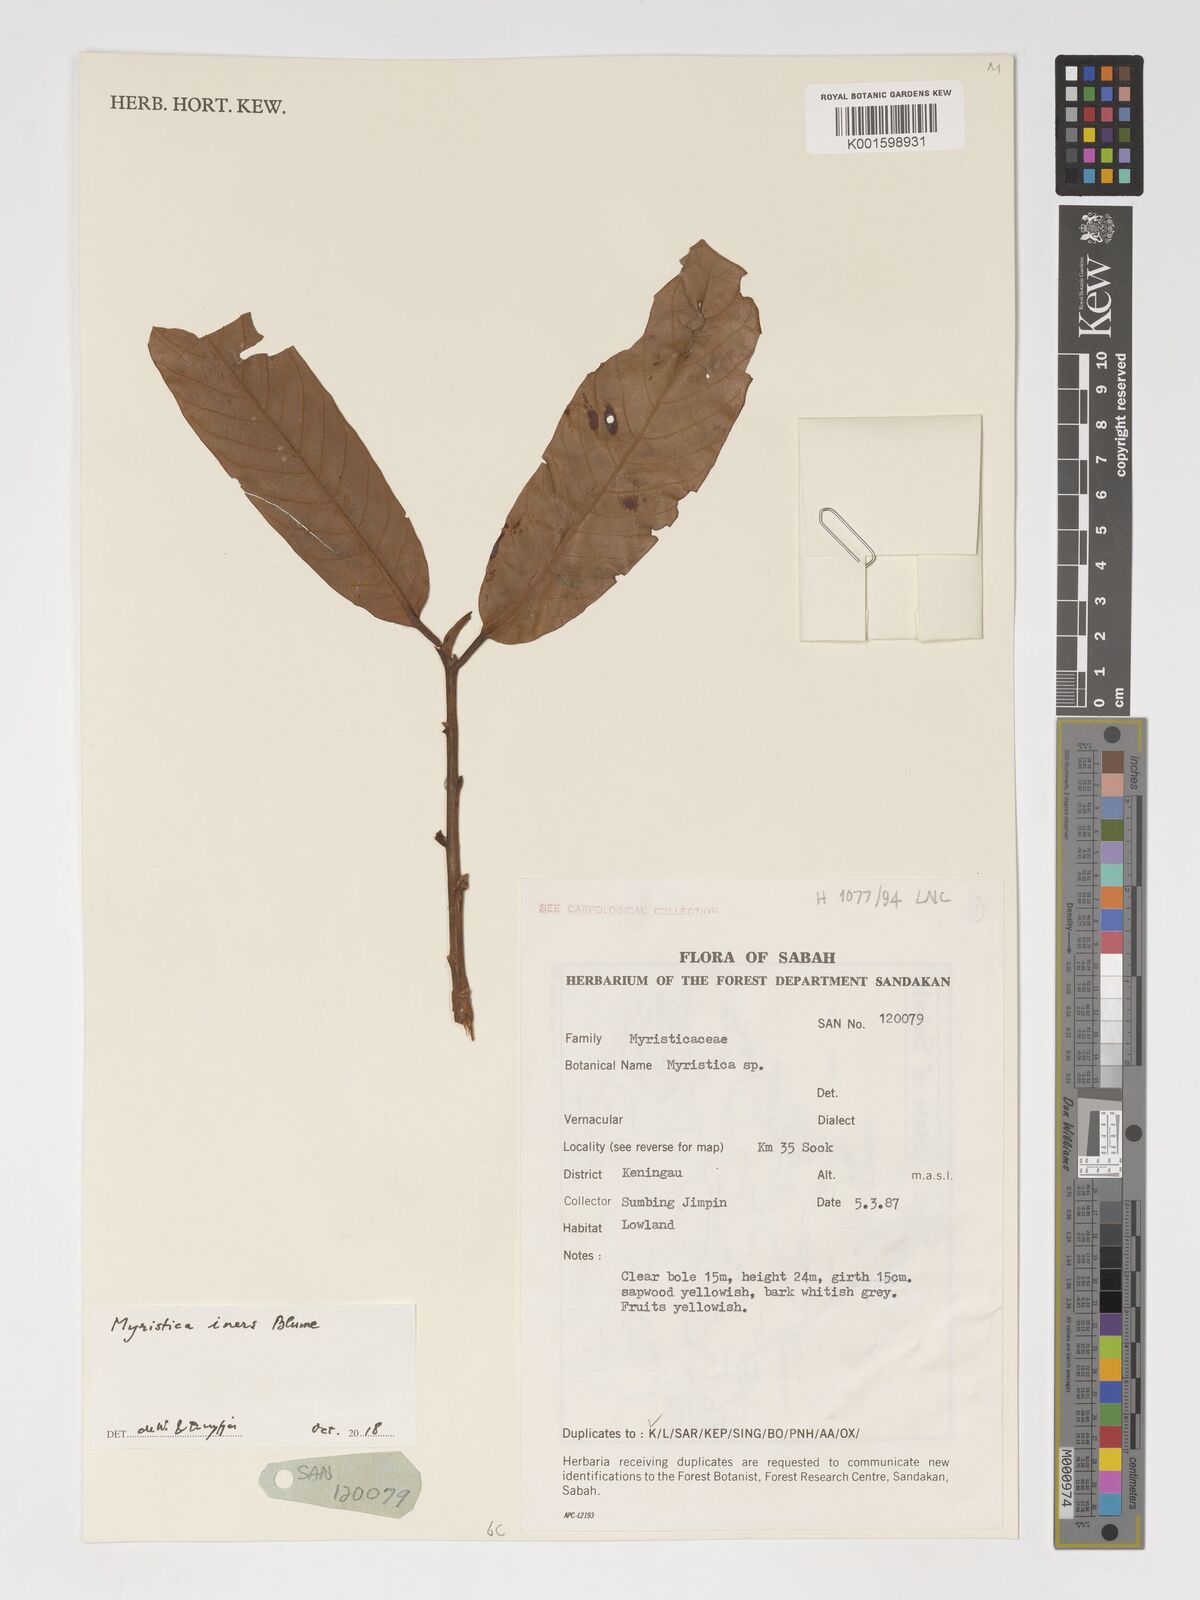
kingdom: Plantae
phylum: Tracheophyta
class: Magnoliopsida
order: Magnoliales
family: Myristicaceae
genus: Myristica
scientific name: Myristica iners
